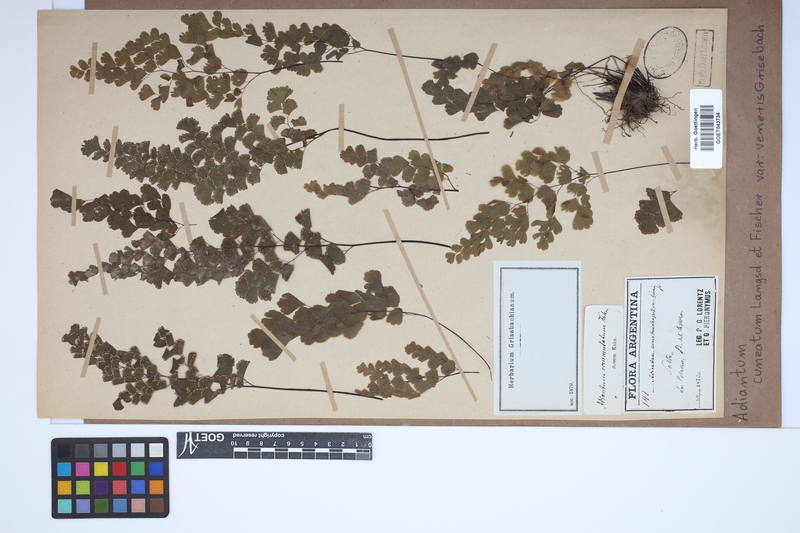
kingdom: Plantae
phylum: Tracheophyta
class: Polypodiopsida
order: Polypodiales
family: Pteridaceae
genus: Adiantum
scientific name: Adiantum lorentzii
